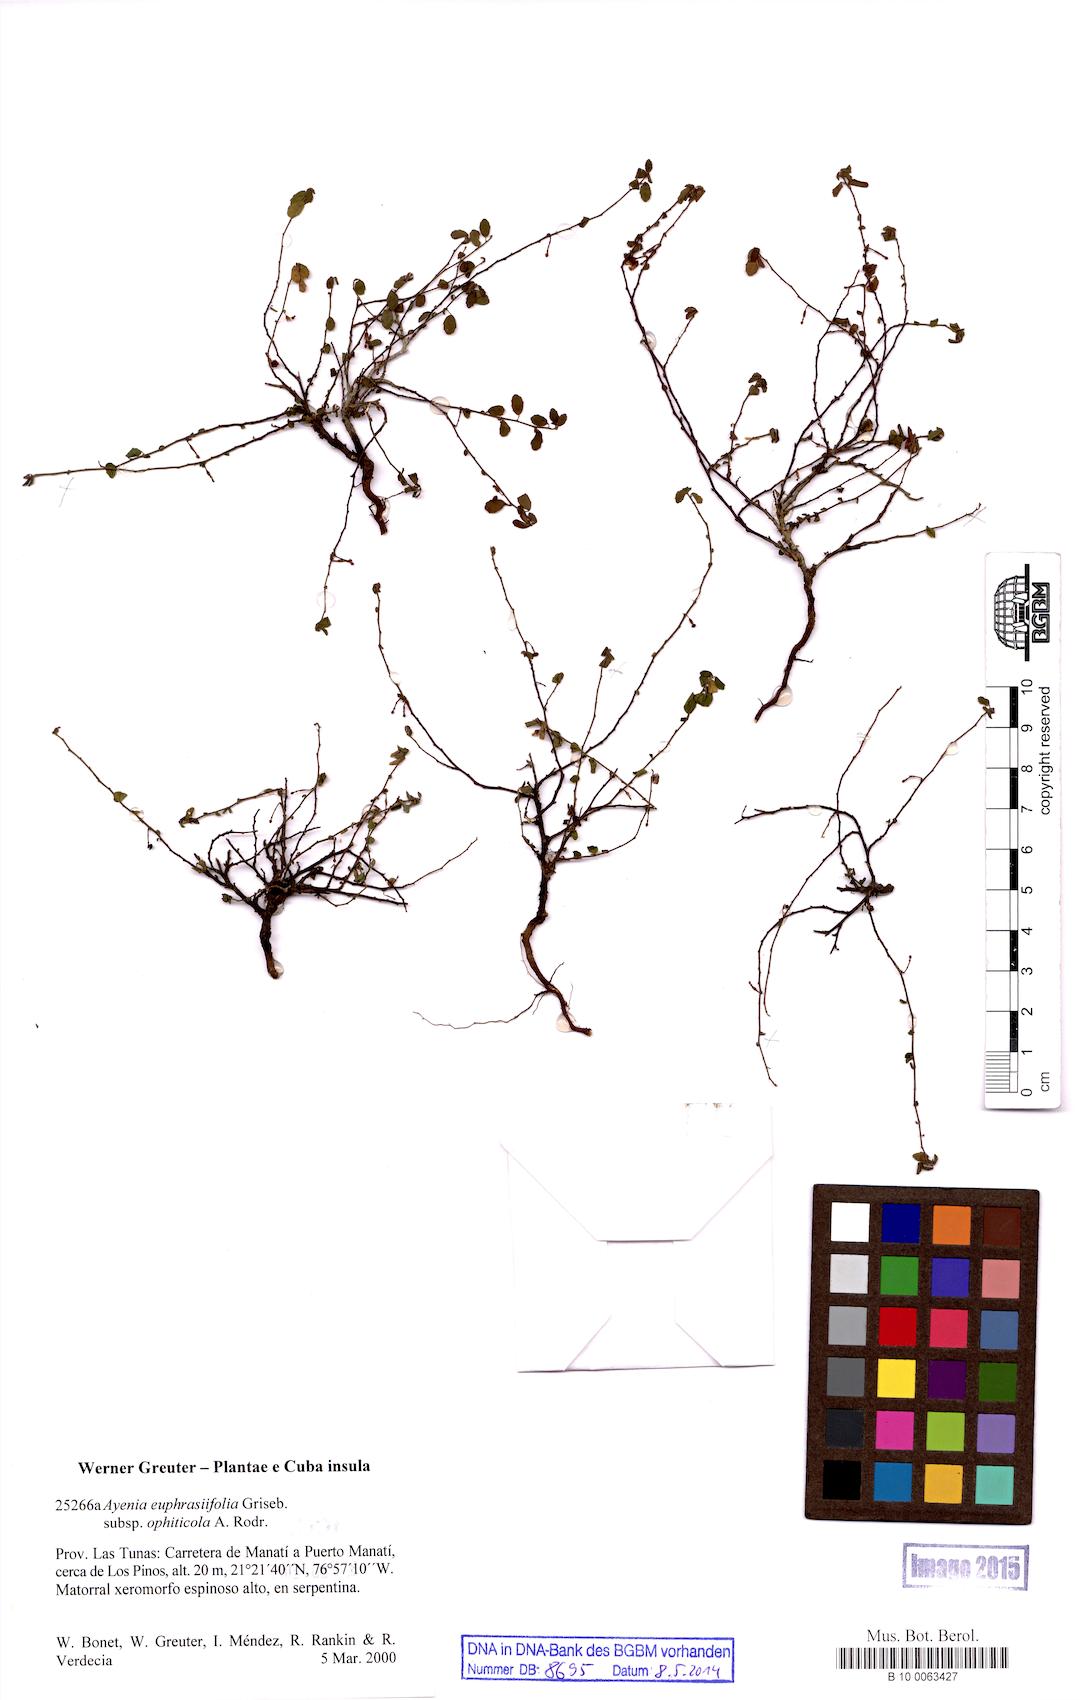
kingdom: Plantae
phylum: Tracheophyta
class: Magnoliopsida
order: Malvales
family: Malvaceae
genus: Ayenia
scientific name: Ayenia euphrasiifolia
